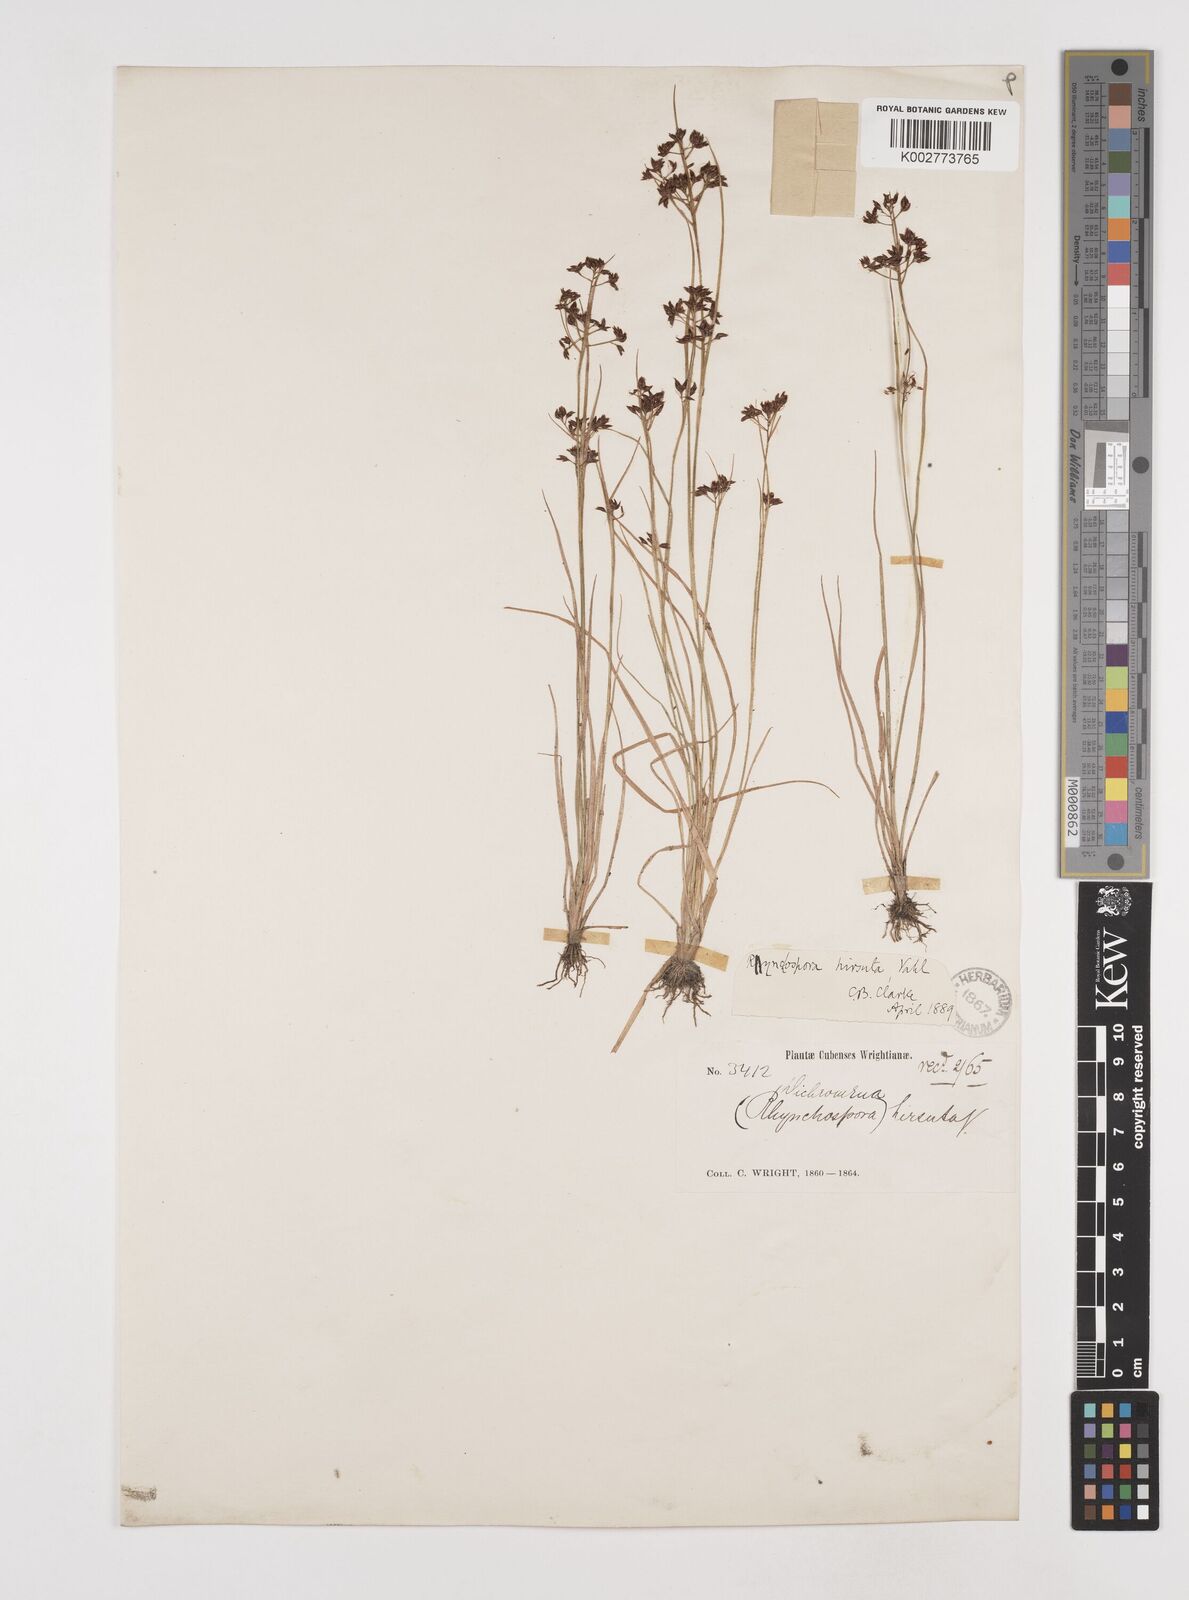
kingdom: Plantae
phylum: Tracheophyta
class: Liliopsida
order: Poales
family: Cyperaceae
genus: Rhynchospora
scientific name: Rhynchospora hirsuta
